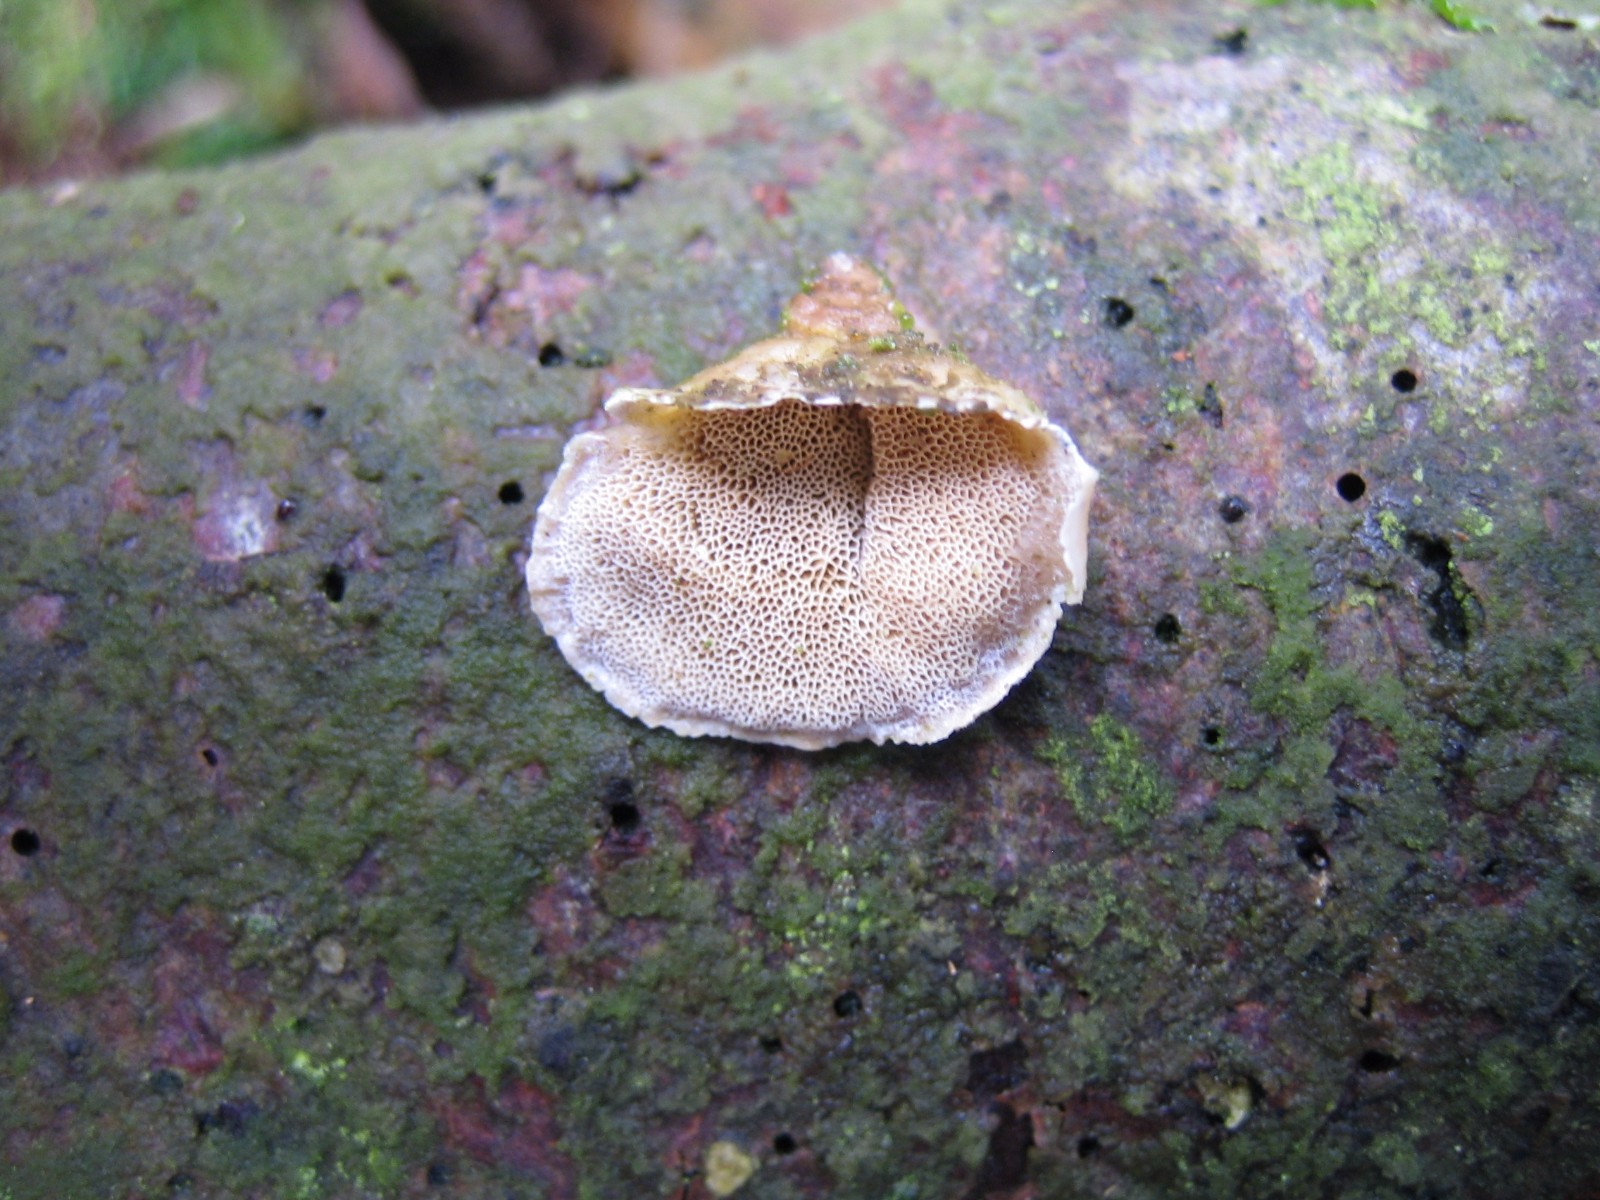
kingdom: Fungi
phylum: Basidiomycota
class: Agaricomycetes
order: Polyporales
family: Incrustoporiaceae
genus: Skeletocutis
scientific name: Skeletocutis carneogrisea
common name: rødgrå krystalporesvamp
